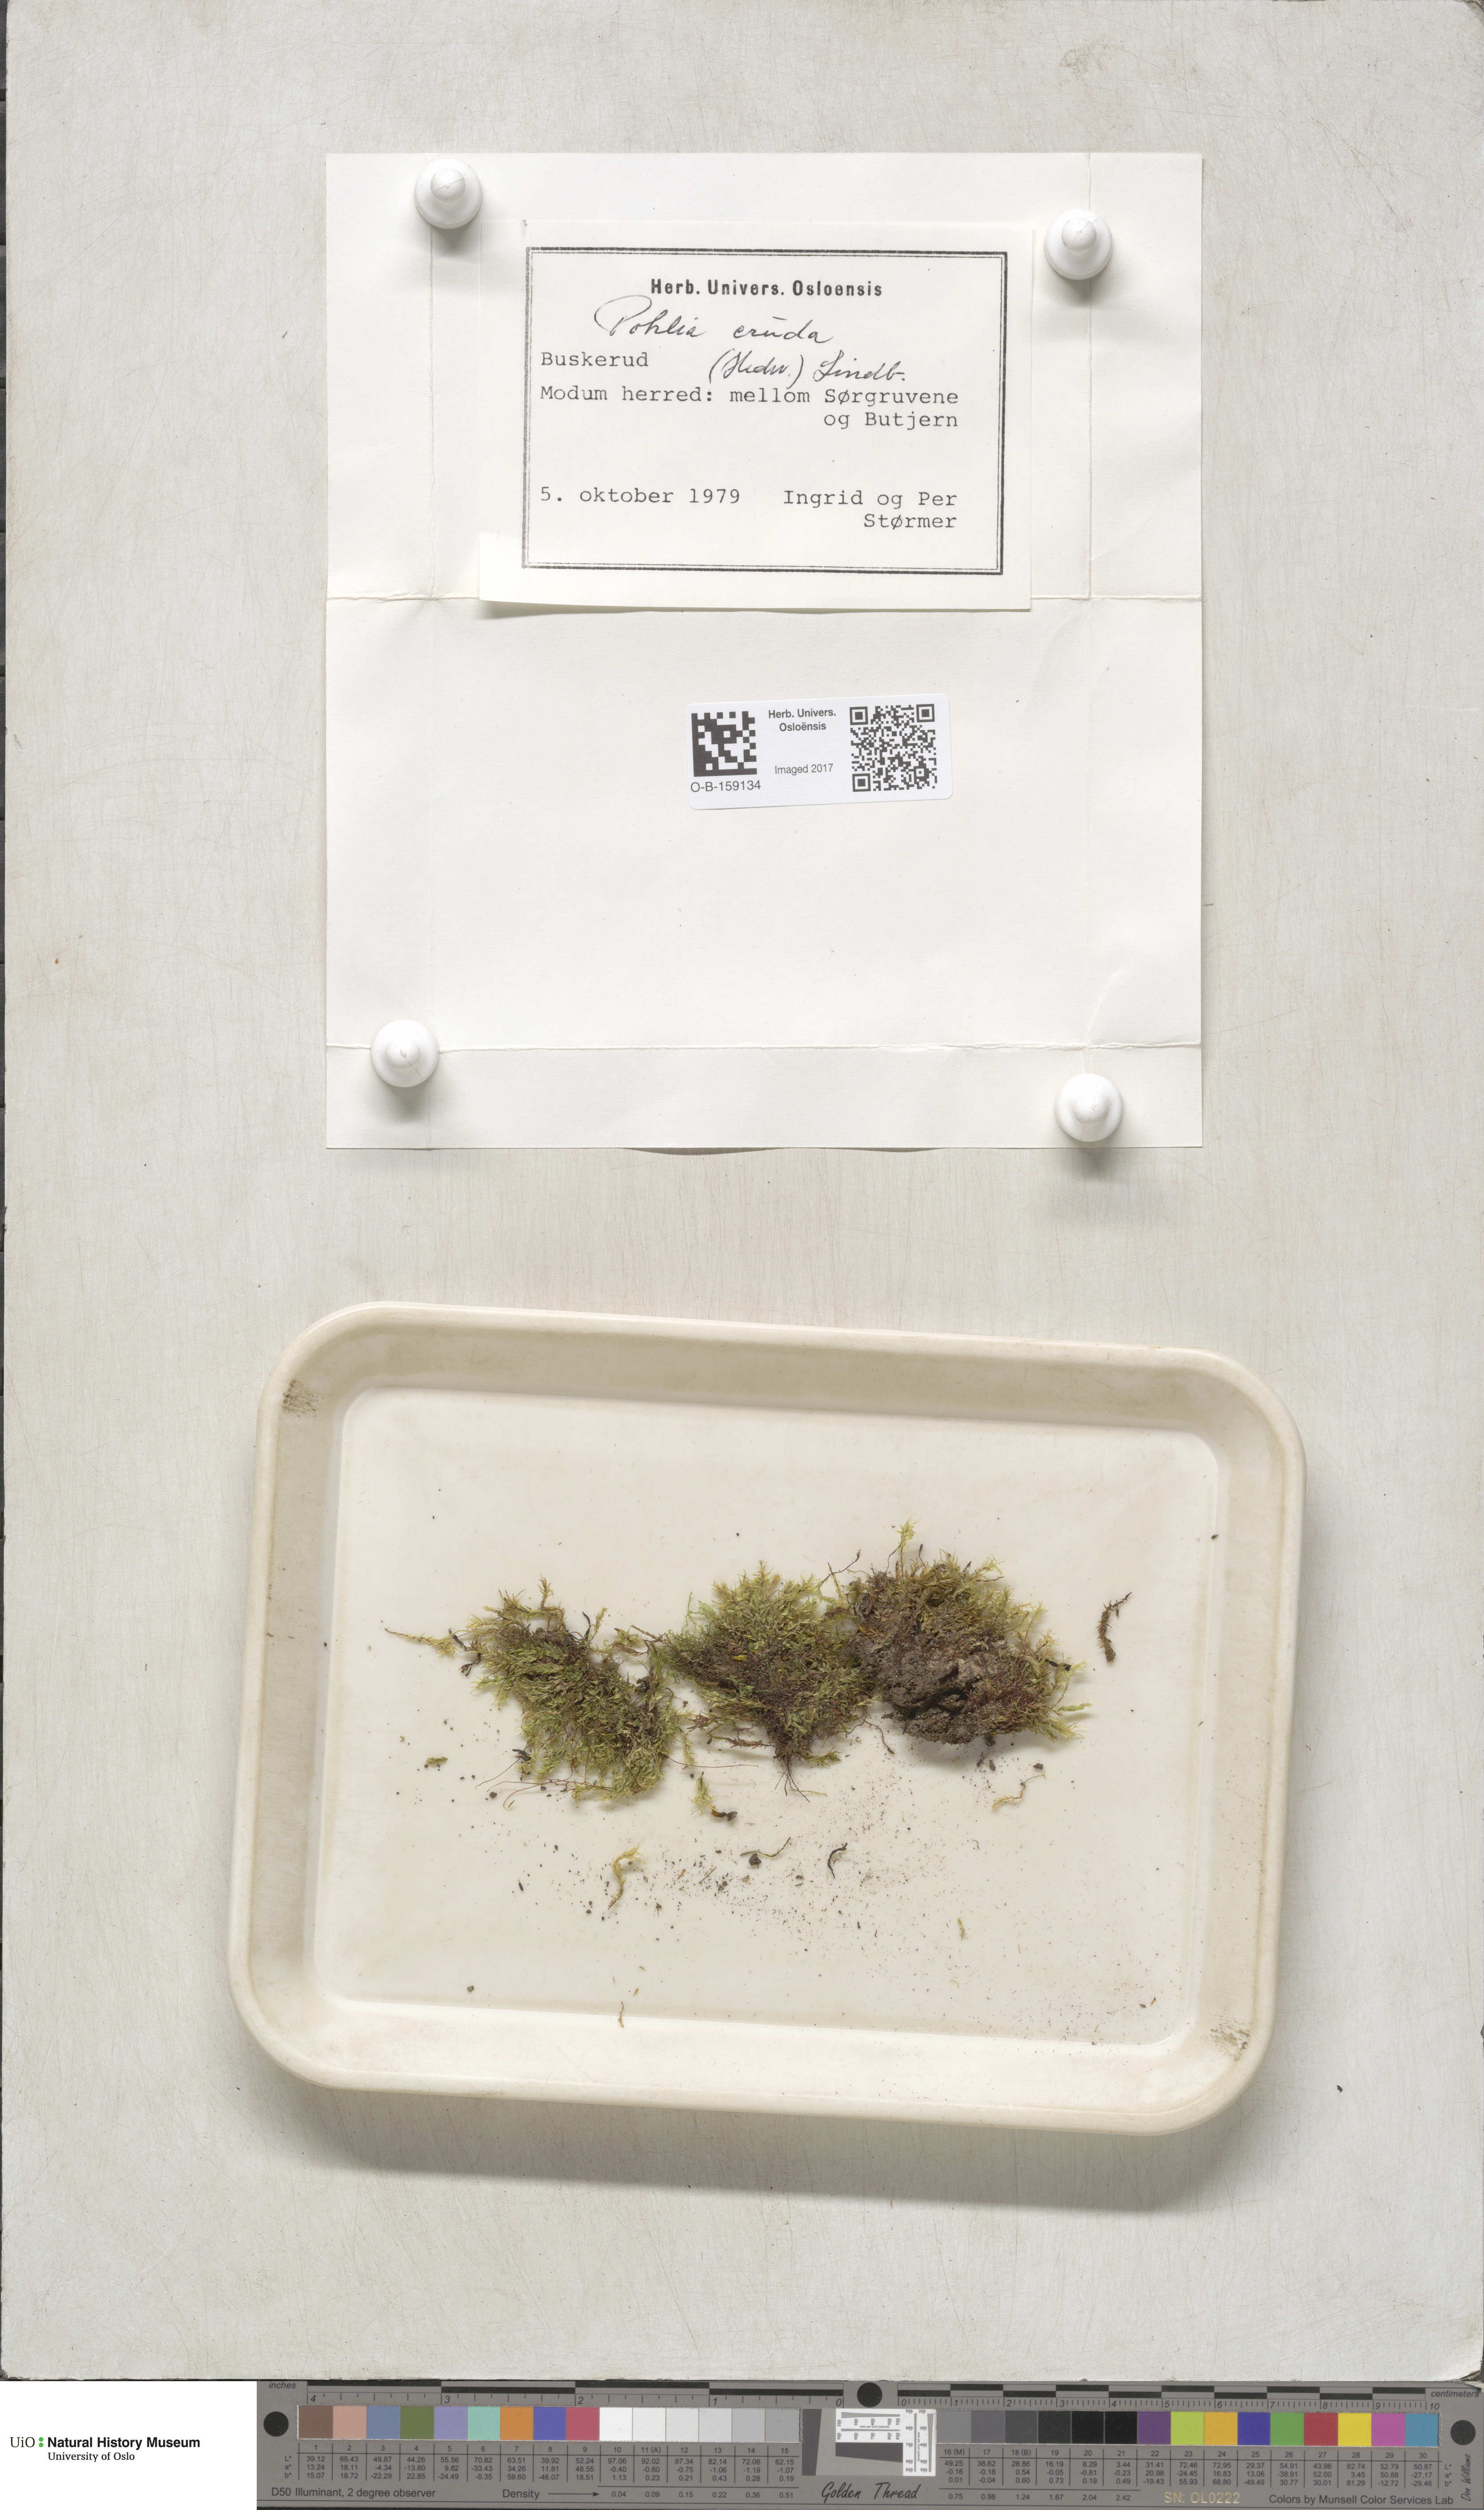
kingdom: Plantae
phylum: Bryophyta
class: Bryopsida
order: Bryales
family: Mniaceae
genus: Pohlia
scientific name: Pohlia cruda
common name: Opal nodding moss
